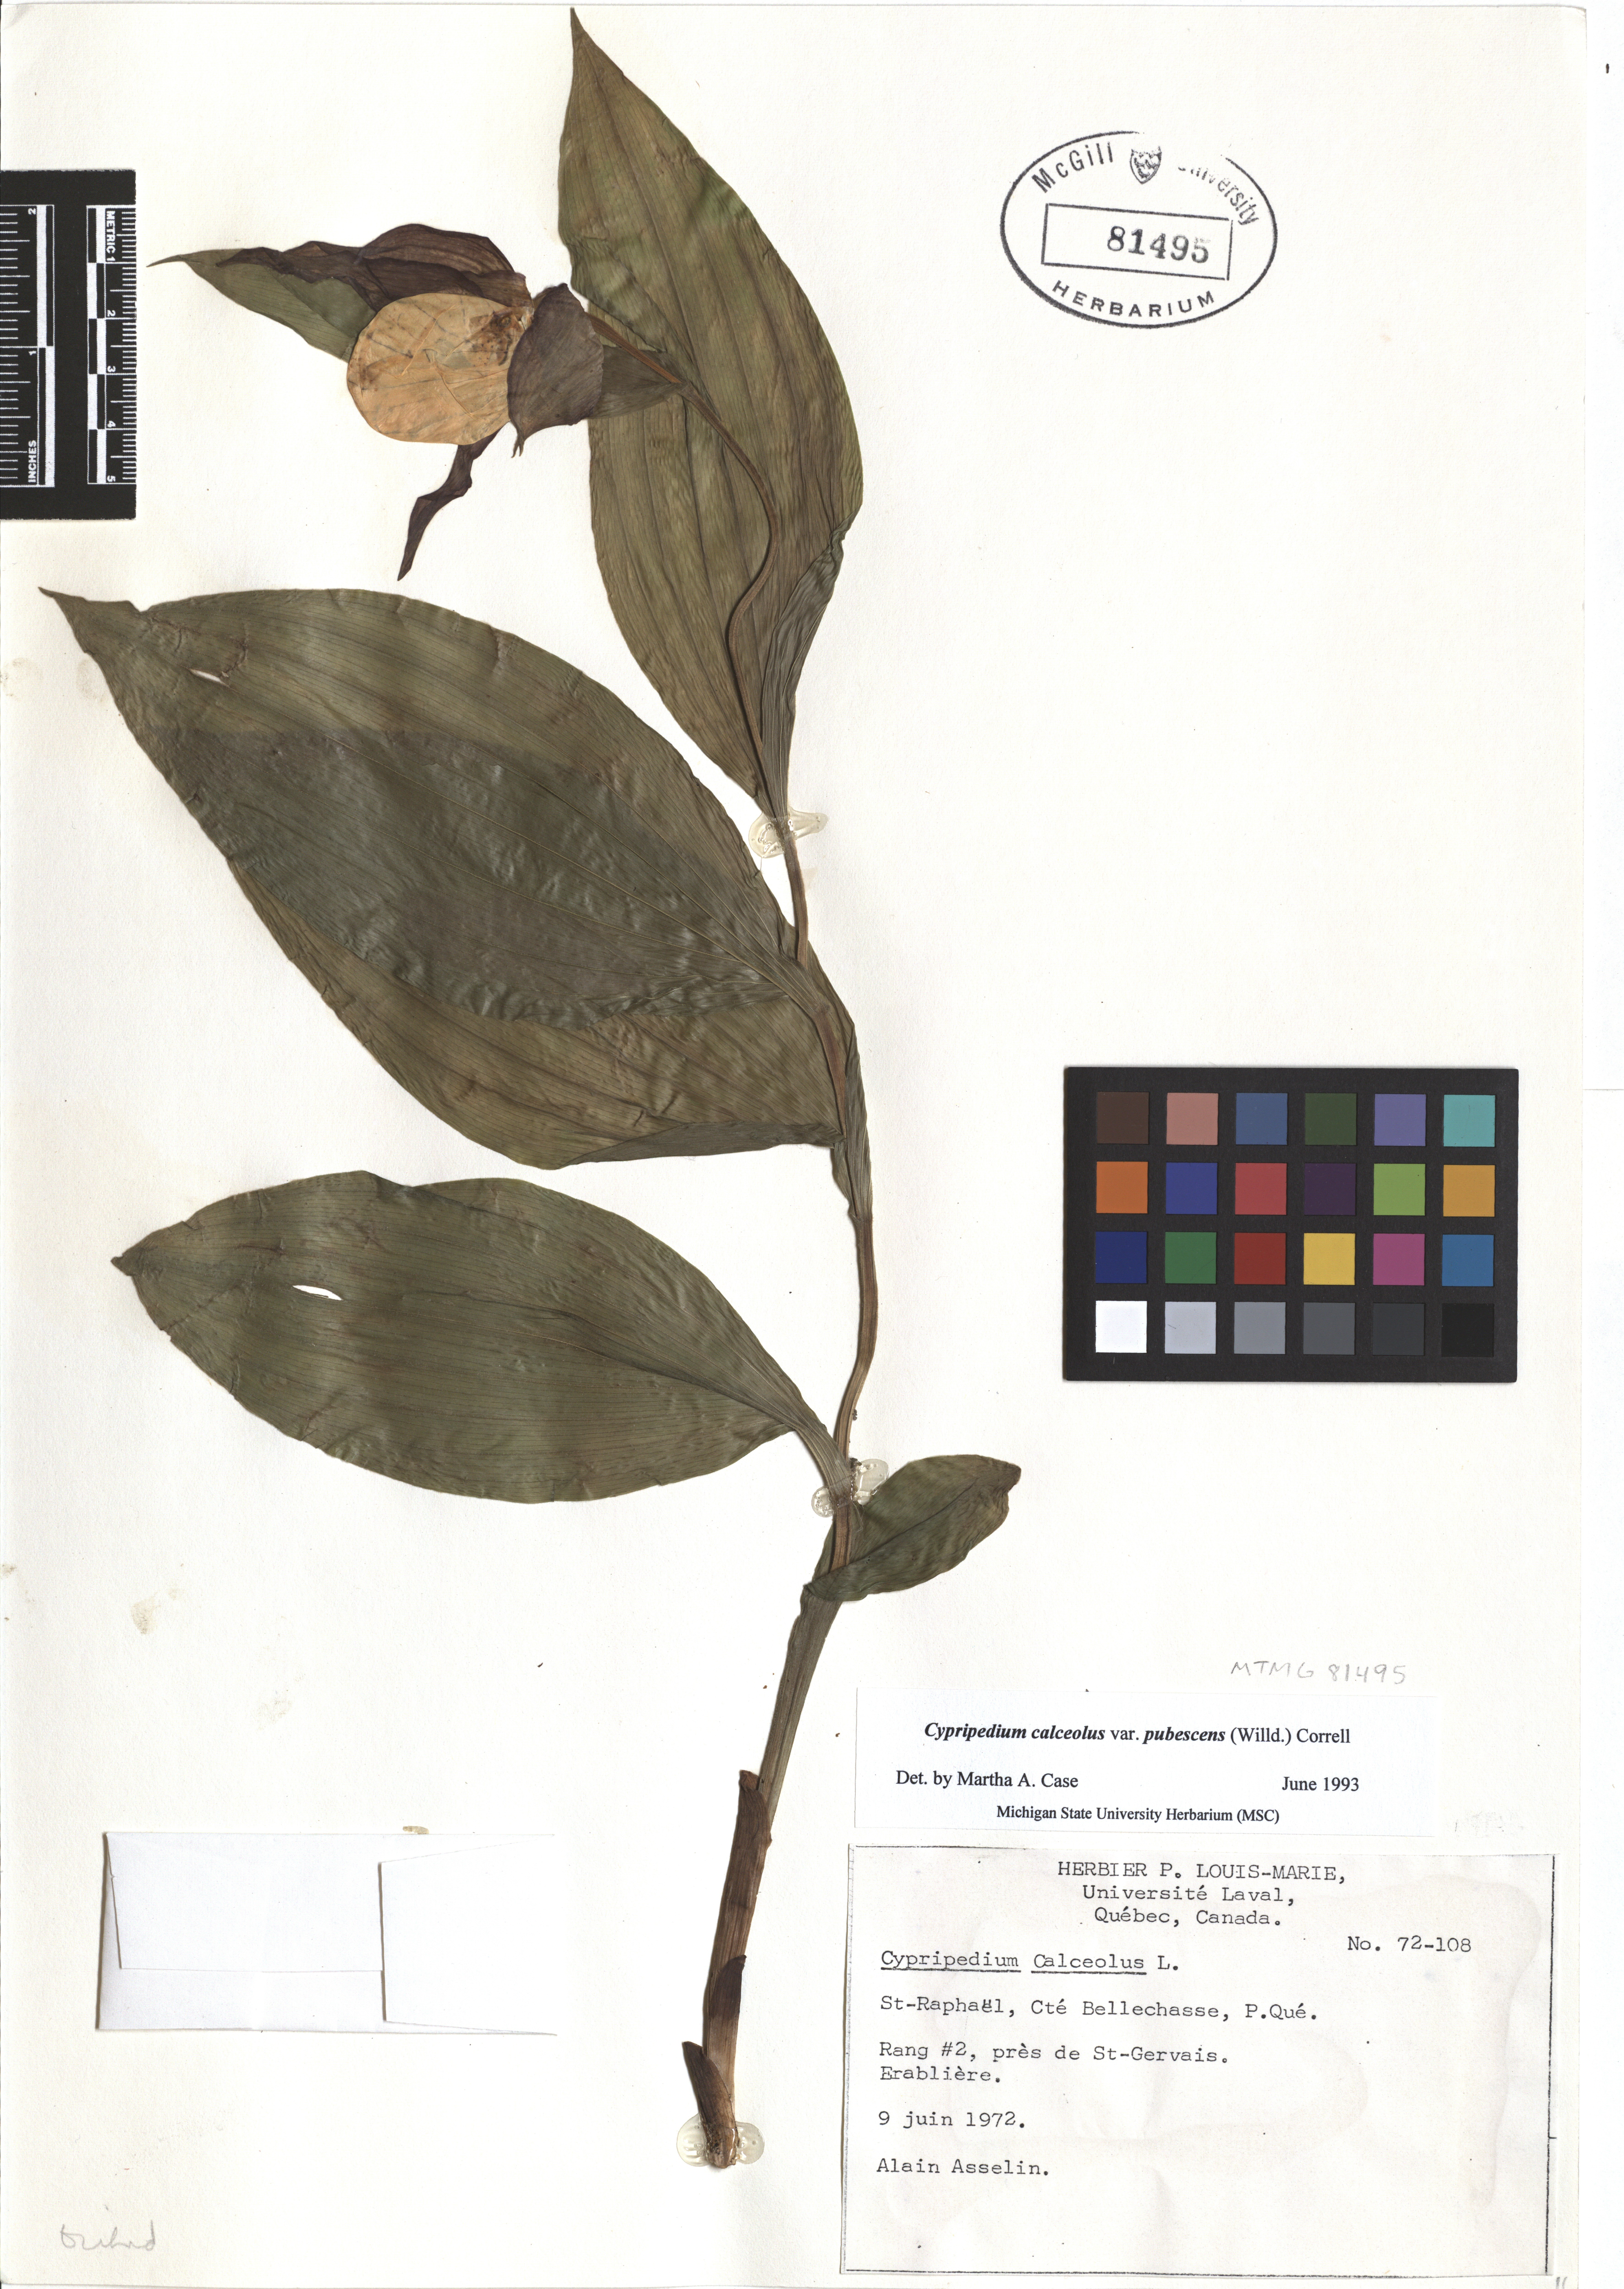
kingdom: Plantae
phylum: Tracheophyta
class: Liliopsida
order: Asparagales
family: Orchidaceae
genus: Cypripedium
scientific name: Cypripedium calceolus
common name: Lady's-slipper
